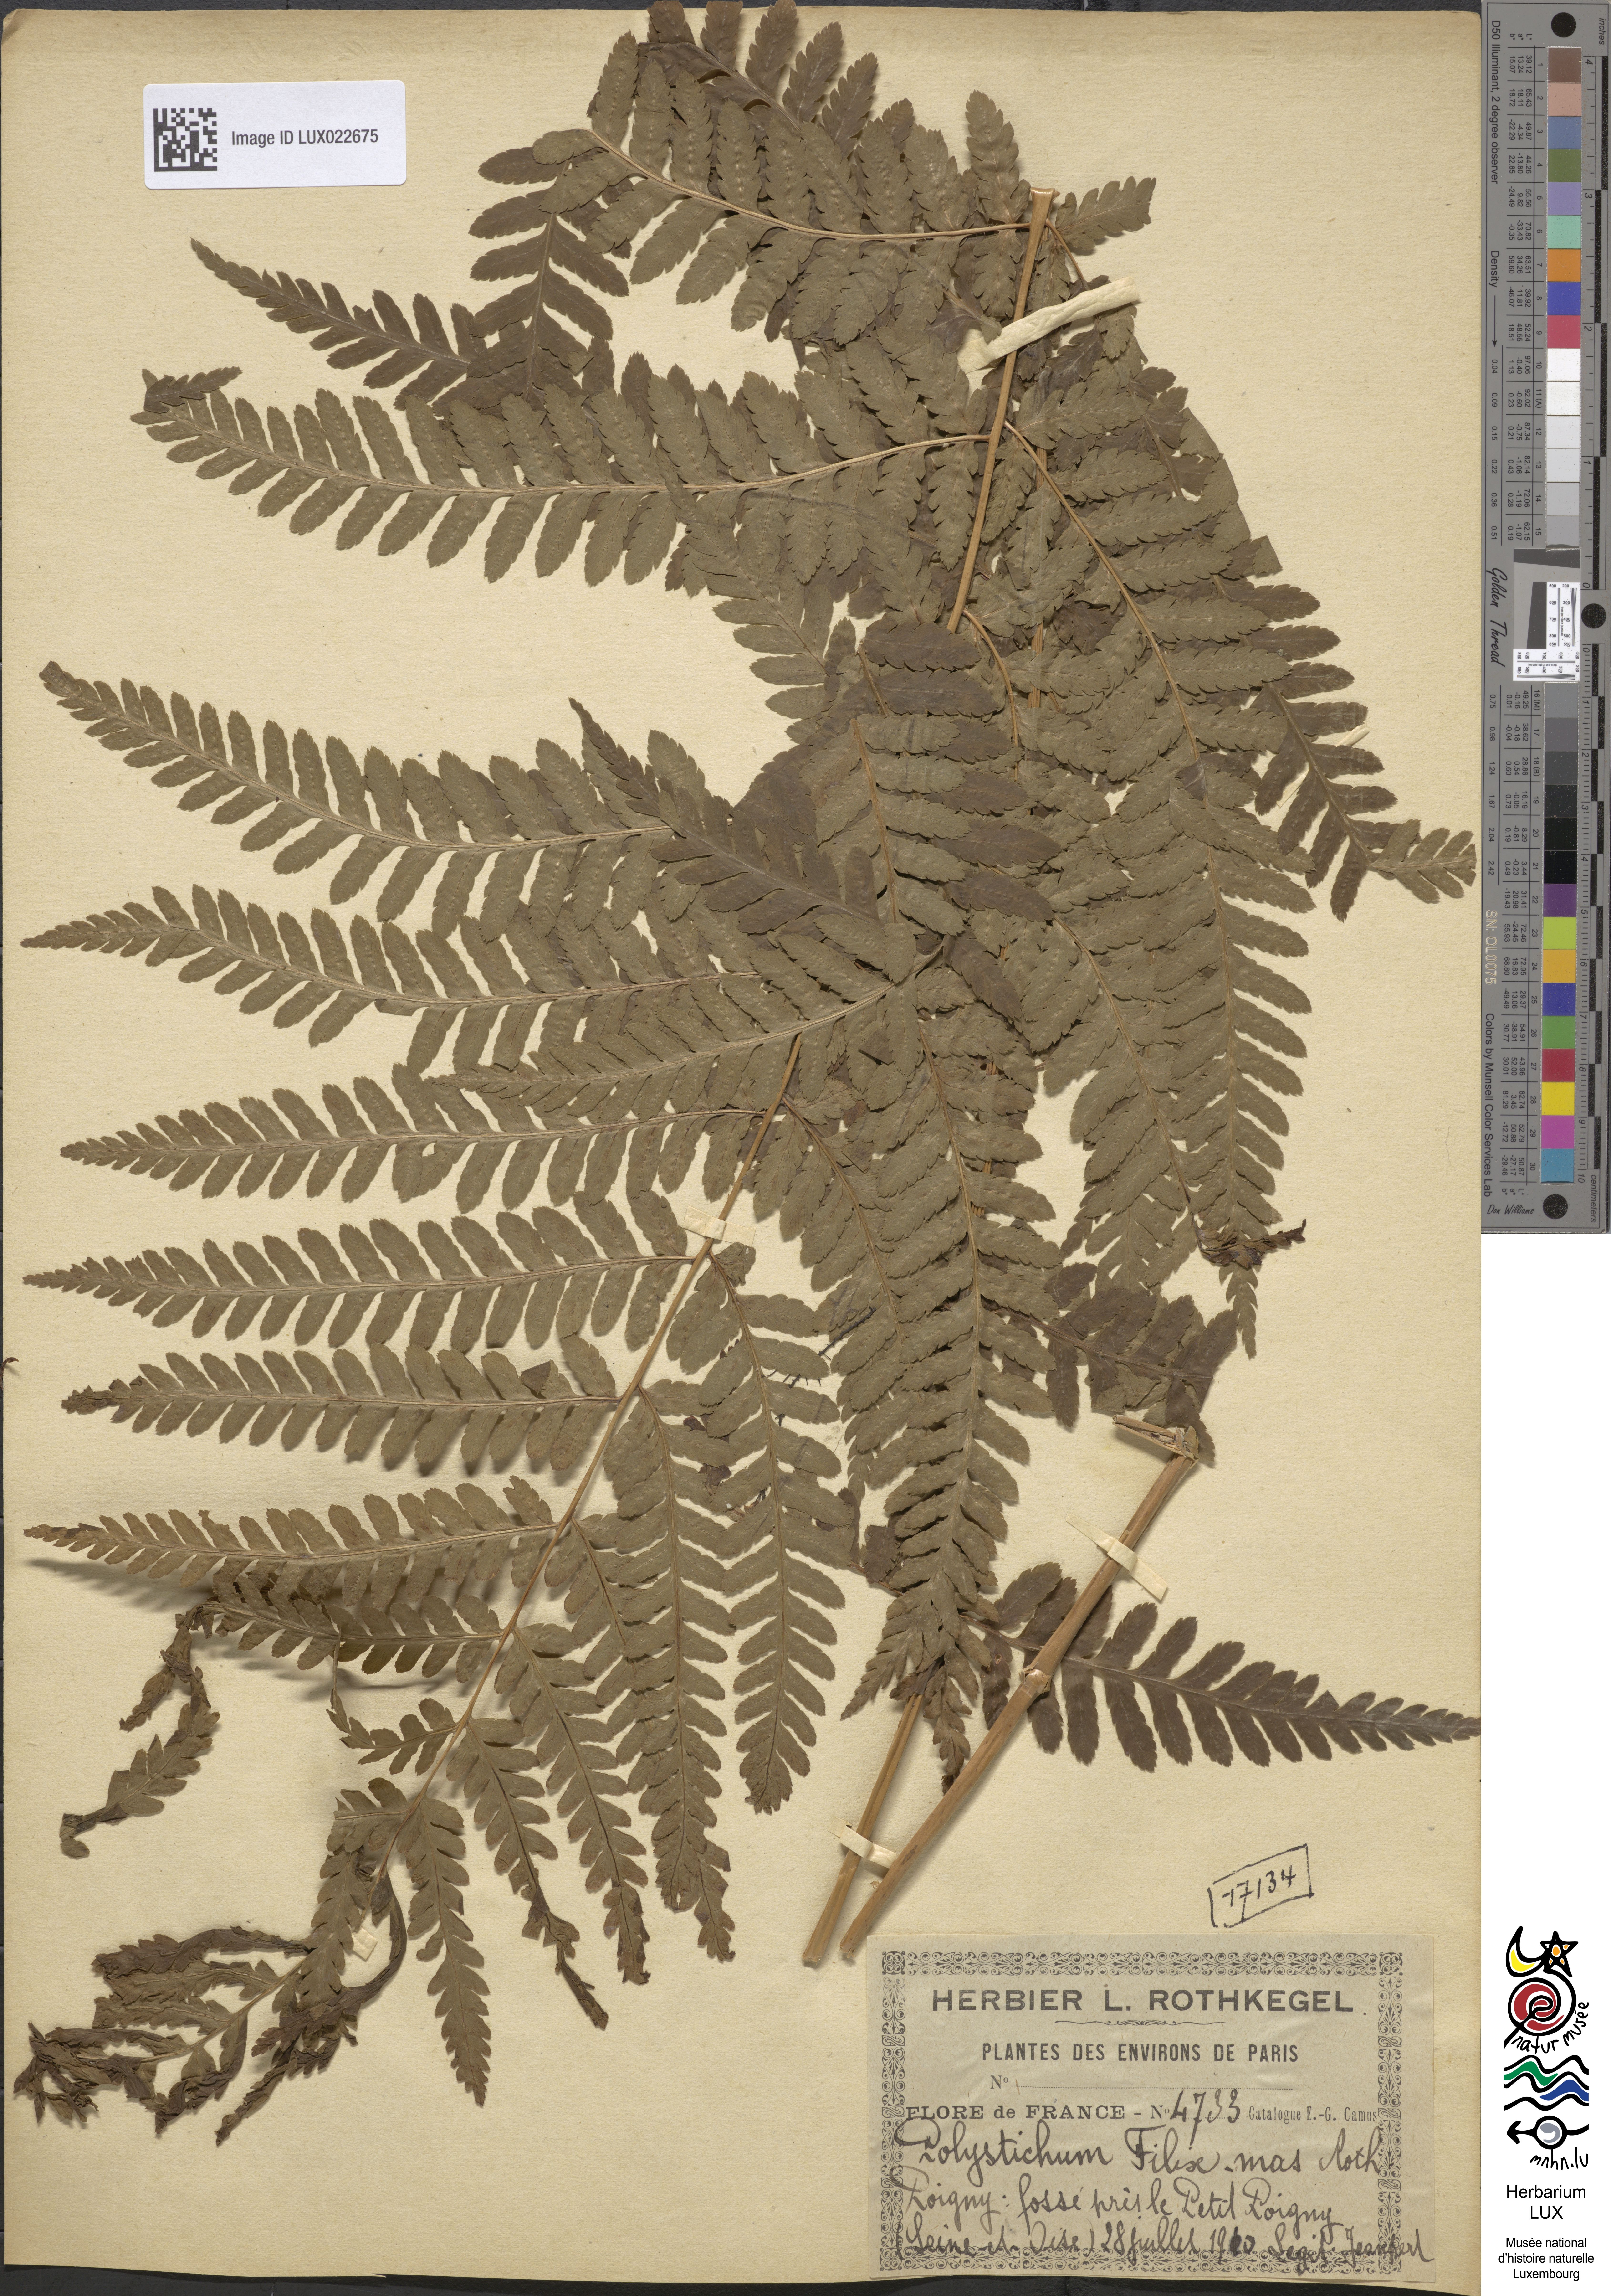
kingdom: Plantae
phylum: Tracheophyta
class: Polypodiopsida
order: Polypodiales
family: Dryopteridaceae
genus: Dryopteris
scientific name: Dryopteris filix-mas
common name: Male fern
